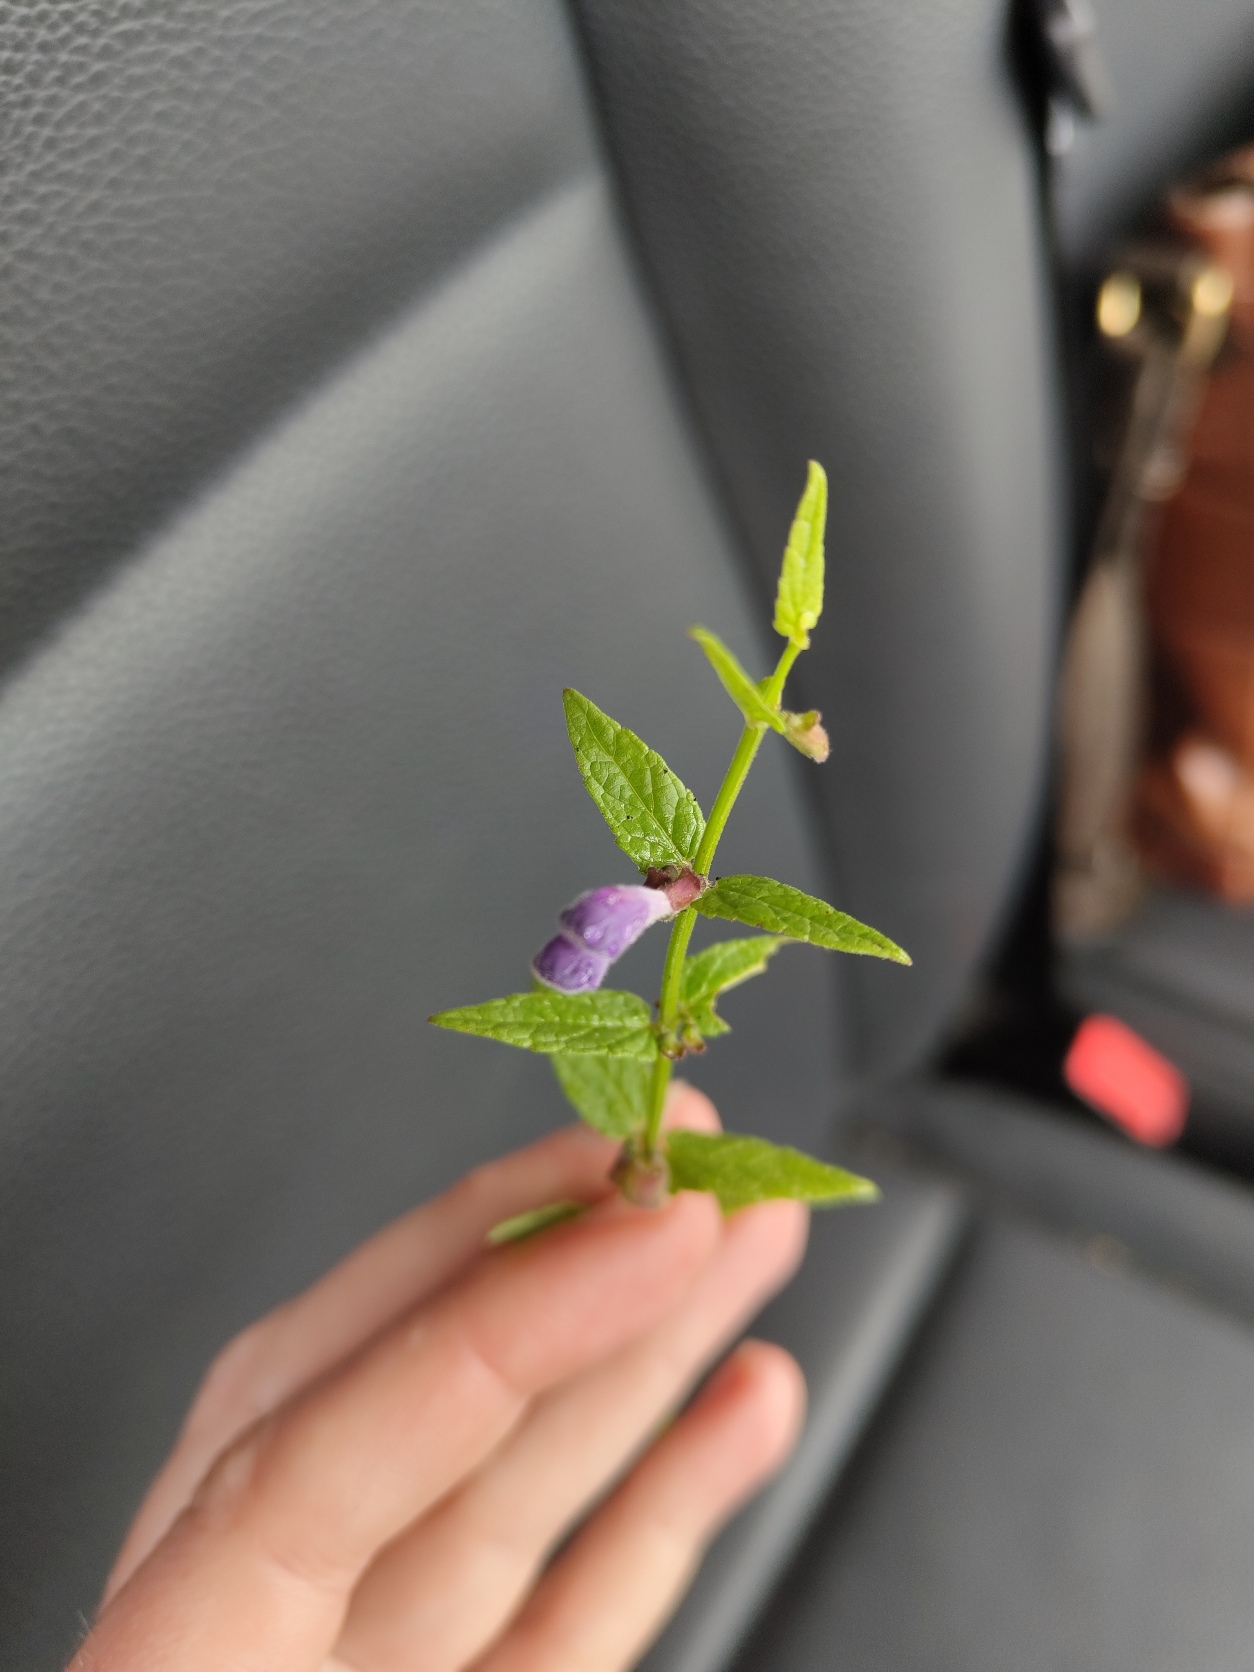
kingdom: Plantae
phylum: Tracheophyta
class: Magnoliopsida
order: Lamiales
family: Lamiaceae
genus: Scutellaria
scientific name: Scutellaria galericulata
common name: Almindelig skjolddrager
